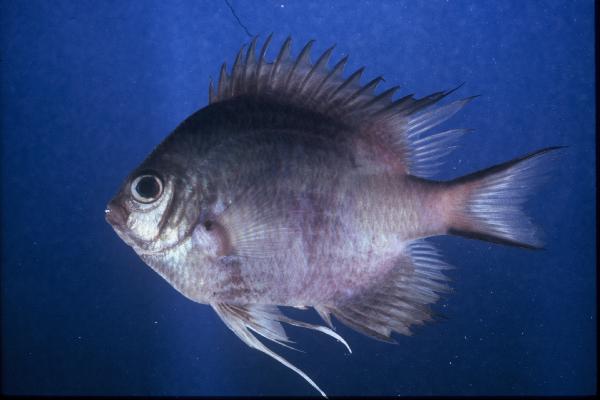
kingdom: Animalia
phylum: Chordata
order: Perciformes
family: Pomacentridae
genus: Amblyglyphidodon
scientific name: Amblyglyphidodon leucogaster
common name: White-belly damsel
